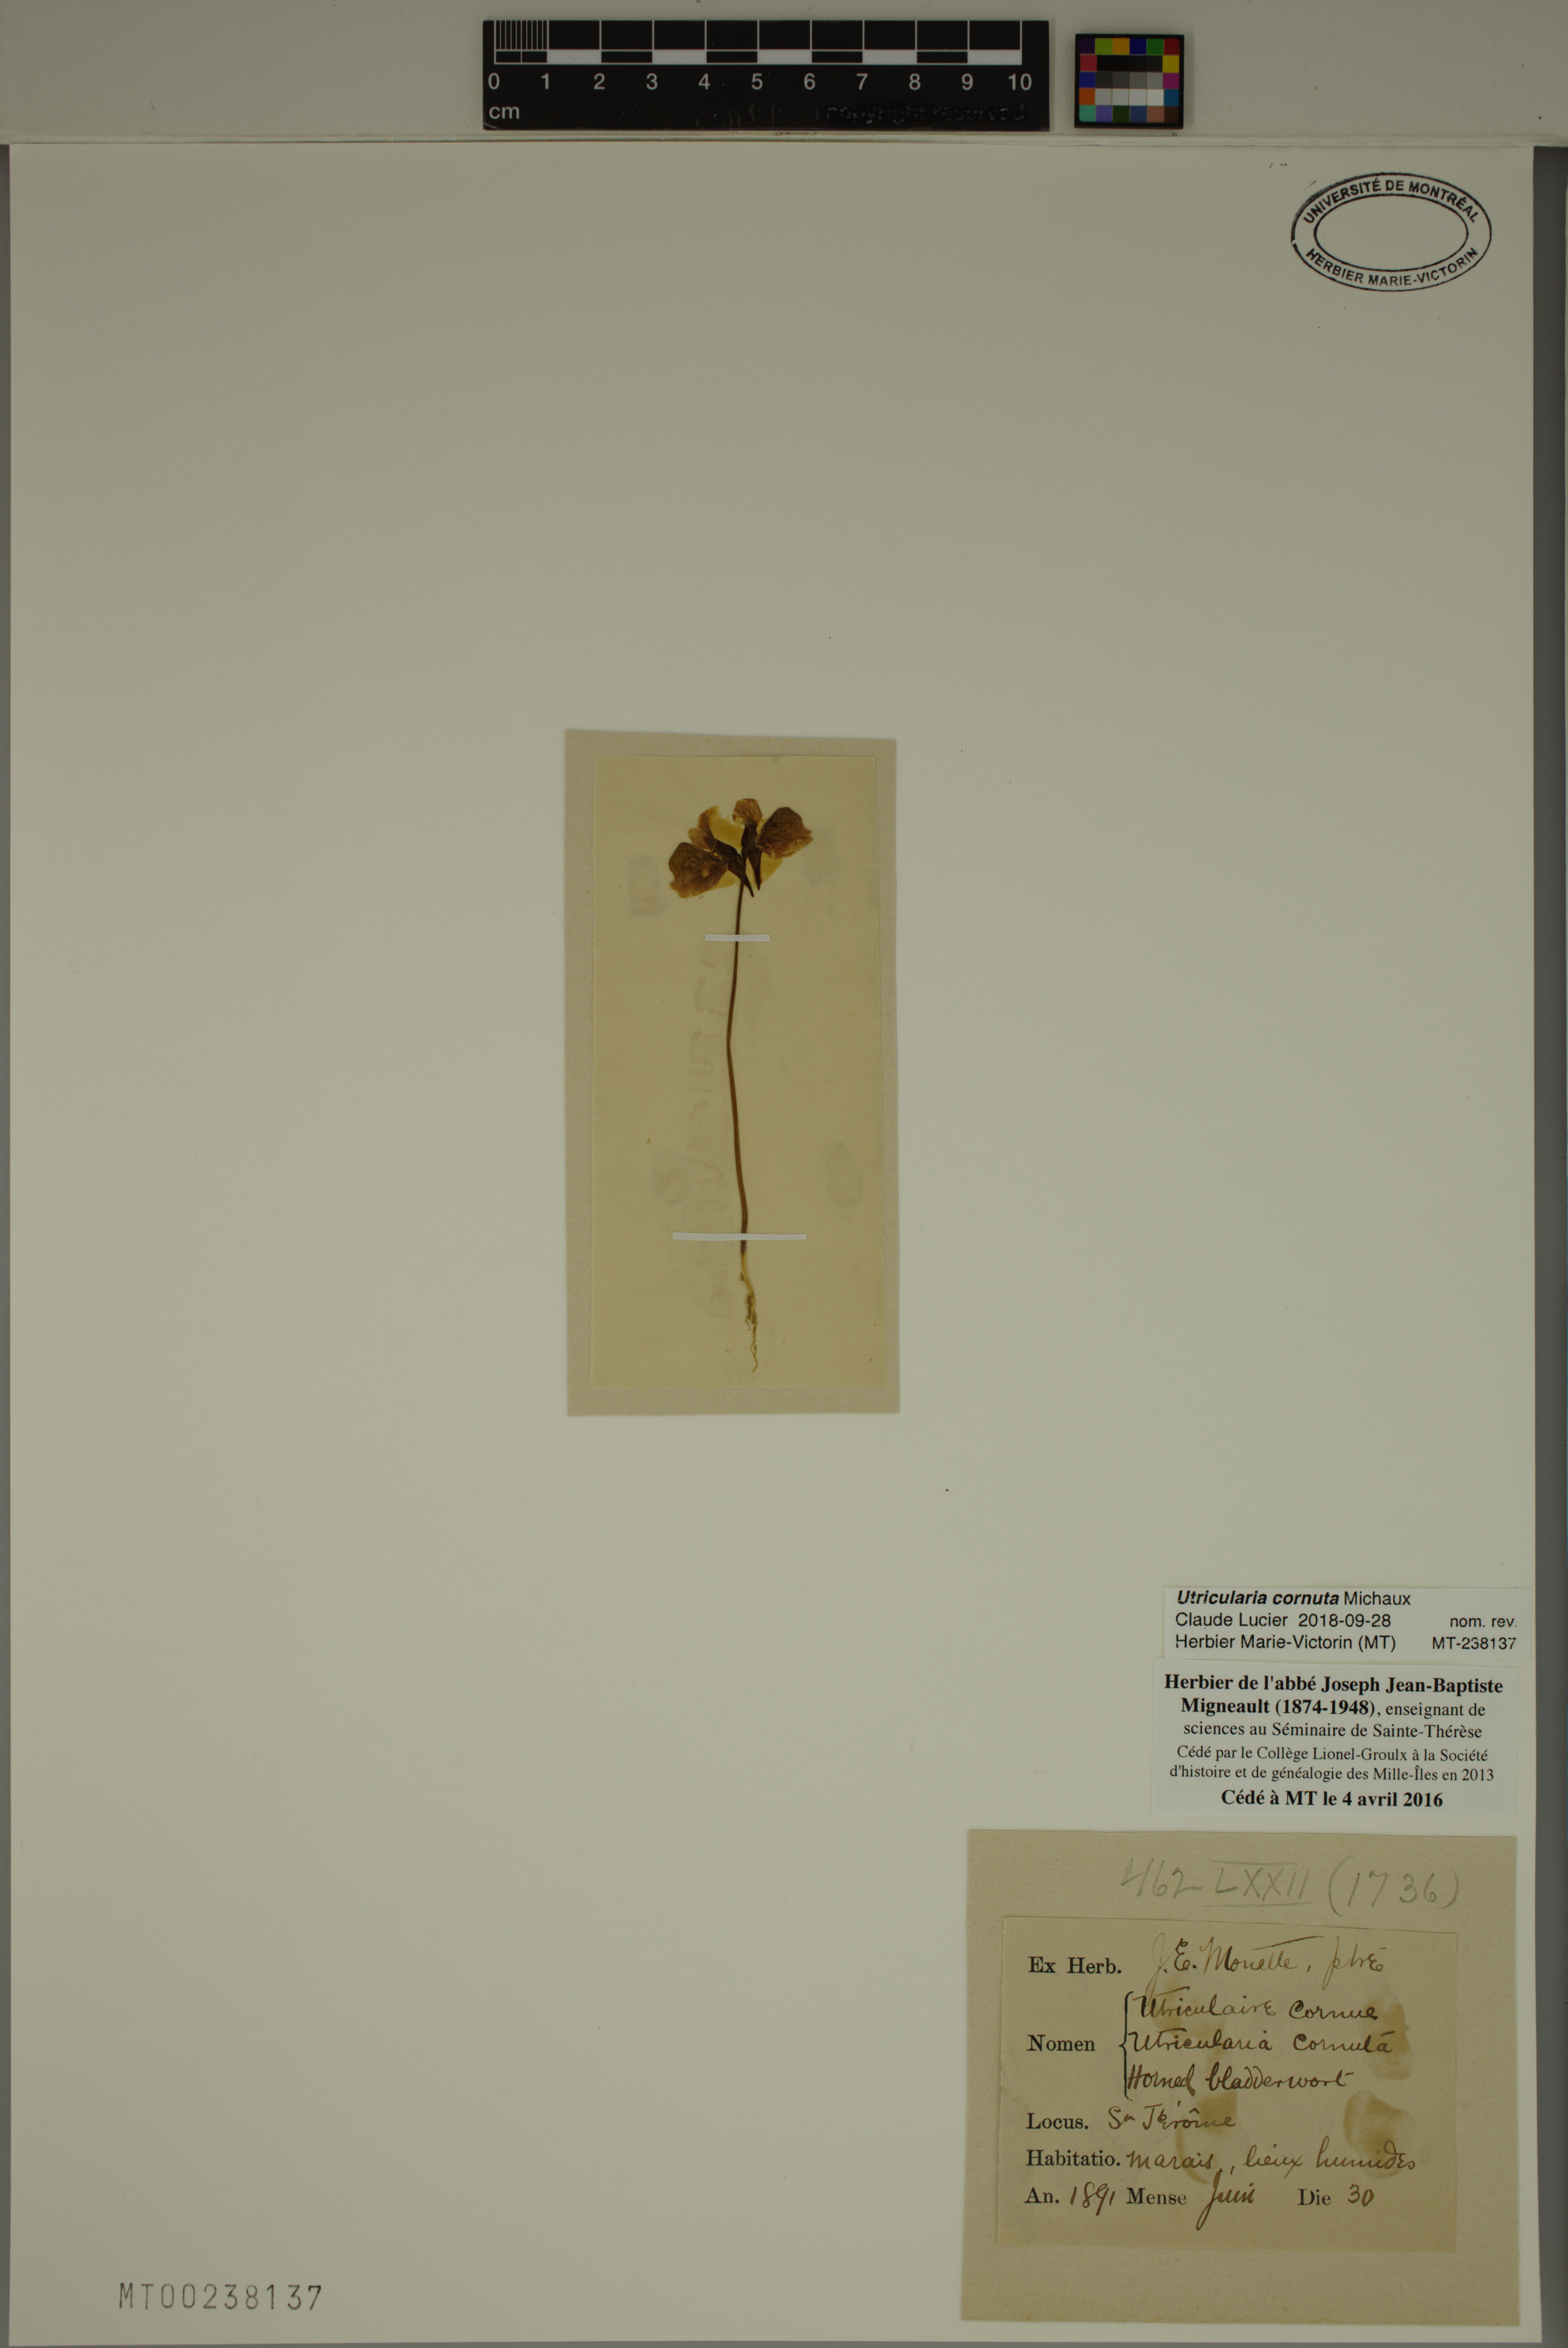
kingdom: Plantae
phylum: Tracheophyta
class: Magnoliopsida
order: Lamiales
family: Lentibulariaceae
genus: Utricularia
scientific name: Utricularia cornuta
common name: Horned bladderwort
